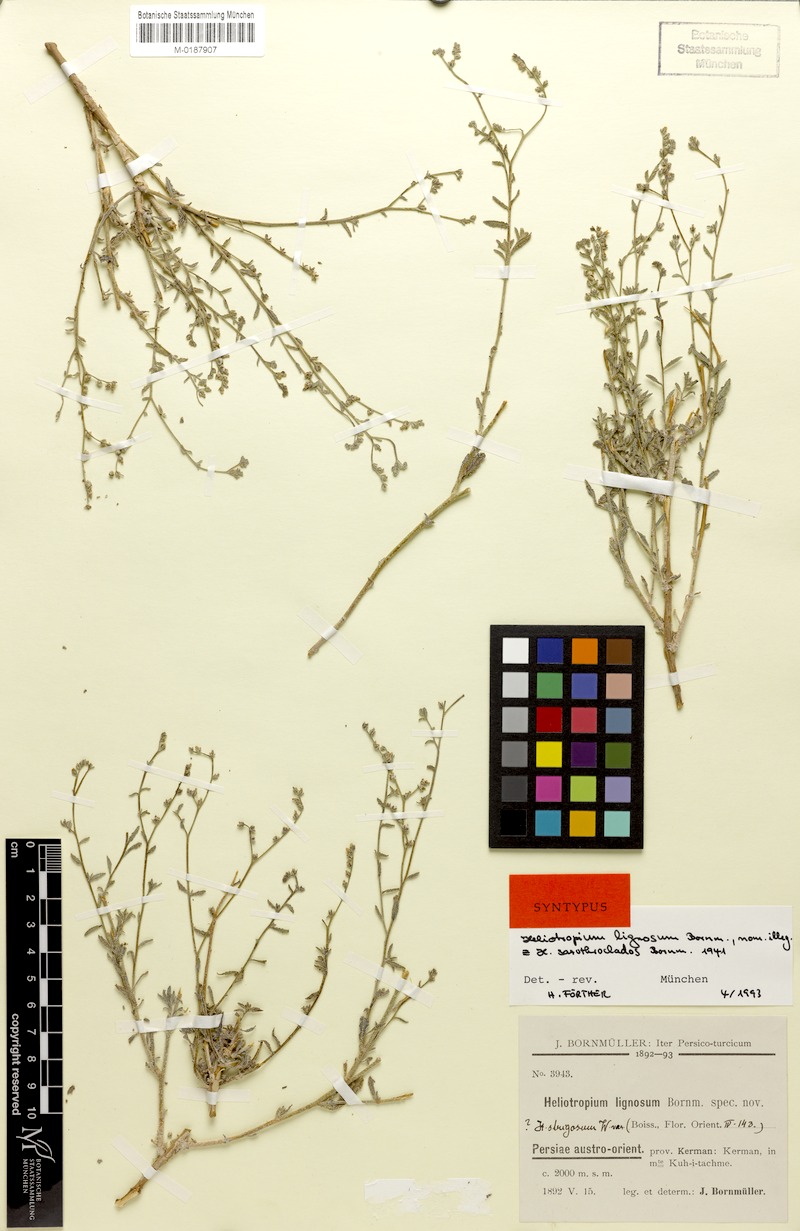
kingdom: Plantae
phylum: Tracheophyta
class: Magnoliopsida
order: Boraginales
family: Heliotropiaceae
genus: Heliotropium
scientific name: Heliotropium bacciferum
